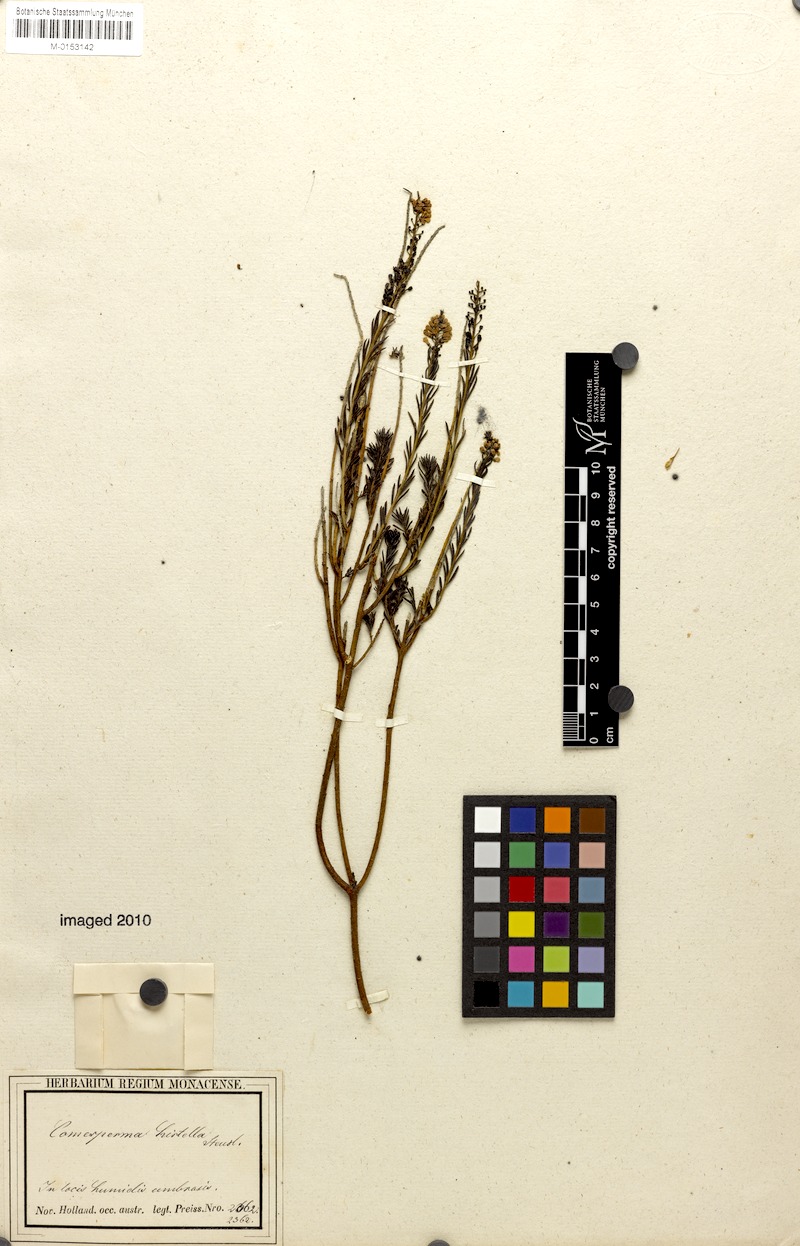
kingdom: Plantae
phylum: Tracheophyta
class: Magnoliopsida
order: Fabales
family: Polygalaceae
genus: Comesperma
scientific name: Comesperma confertum
